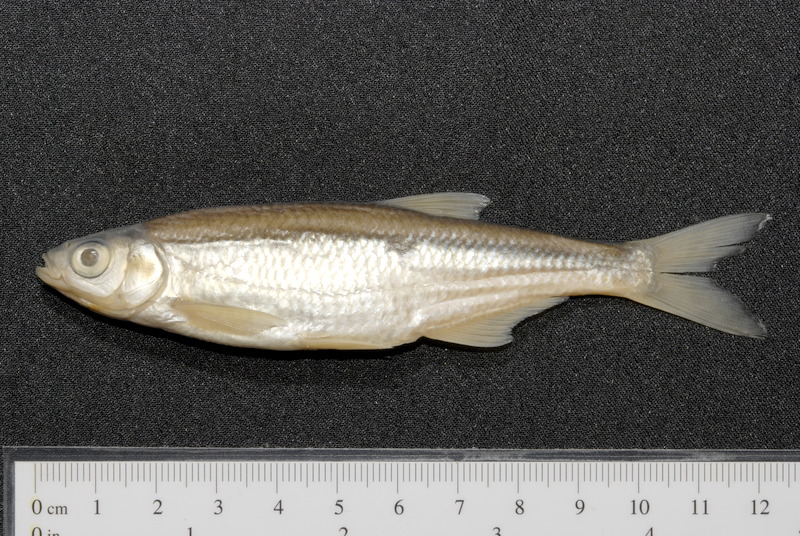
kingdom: Animalia
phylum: Chordata
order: Cypriniformes
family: Cyprinidae
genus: Alburnus
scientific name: Alburnus alburnus
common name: Bleak
